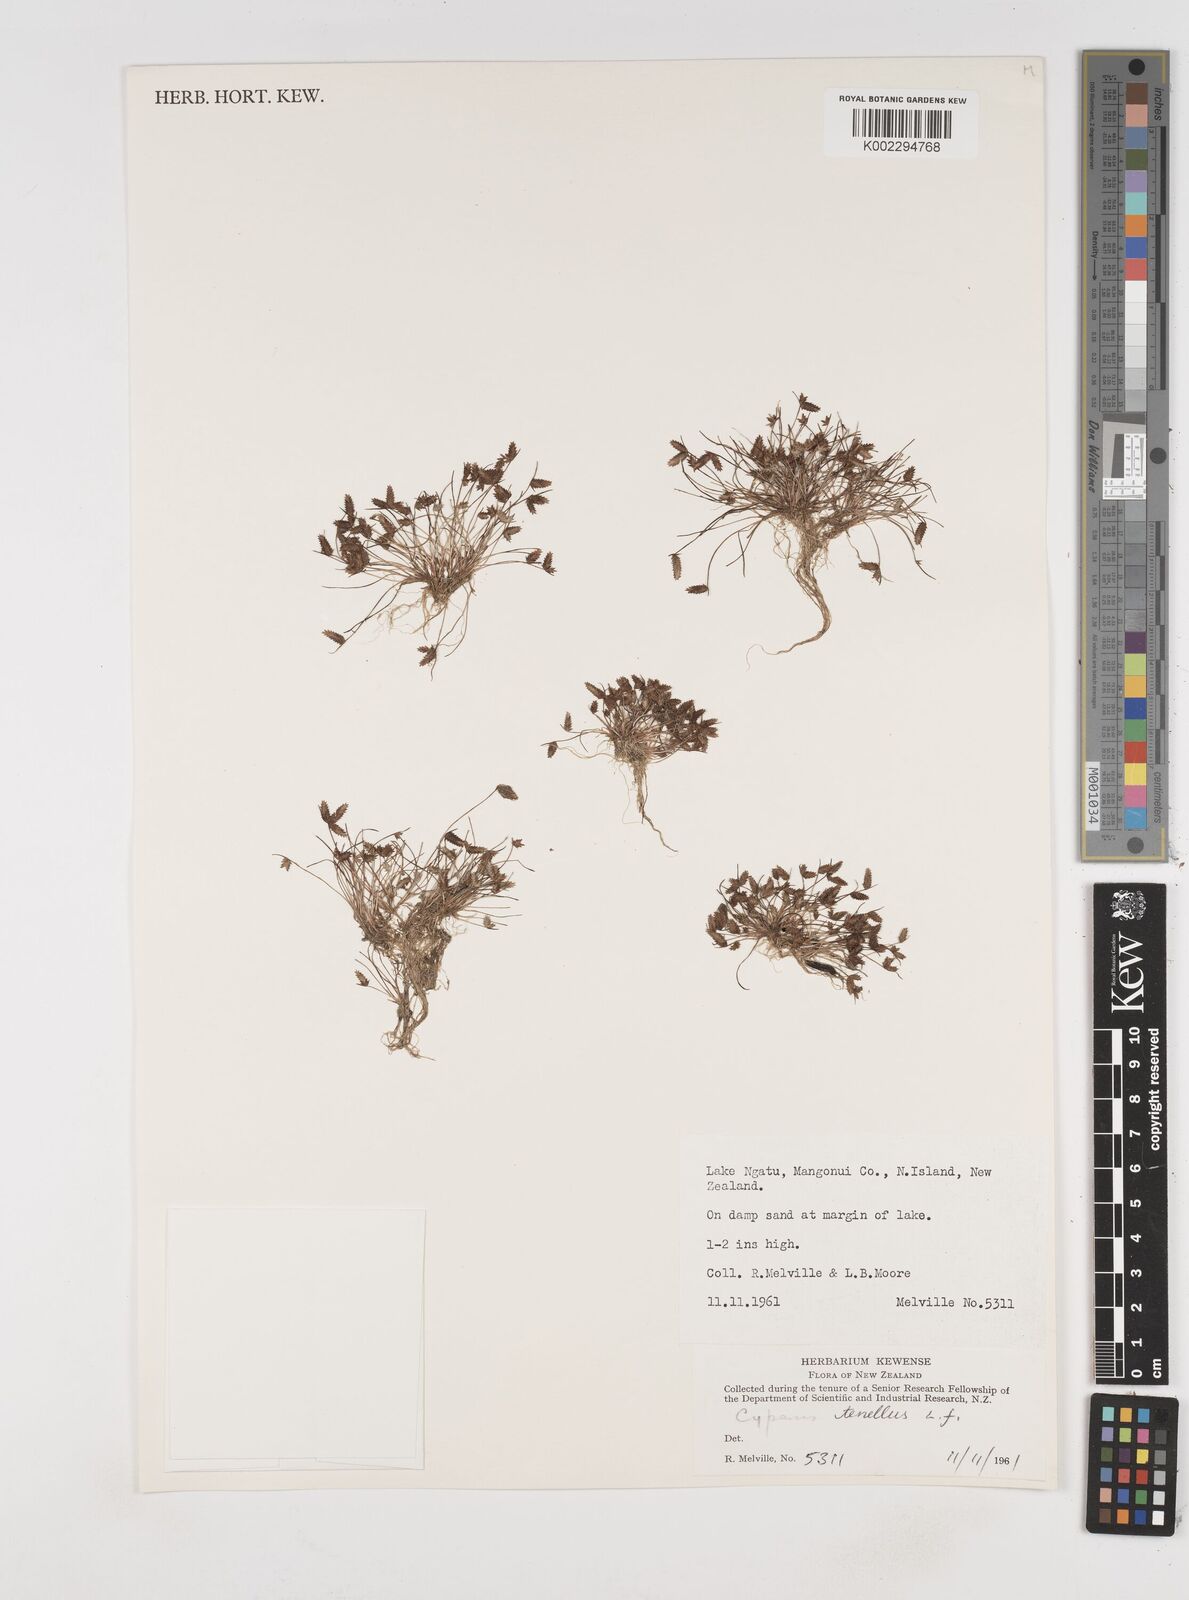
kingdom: Plantae
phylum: Tracheophyta
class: Liliopsida
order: Poales
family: Cyperaceae
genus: Cyperus
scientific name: Cyperus gracilis
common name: Slimjim flatsedge
